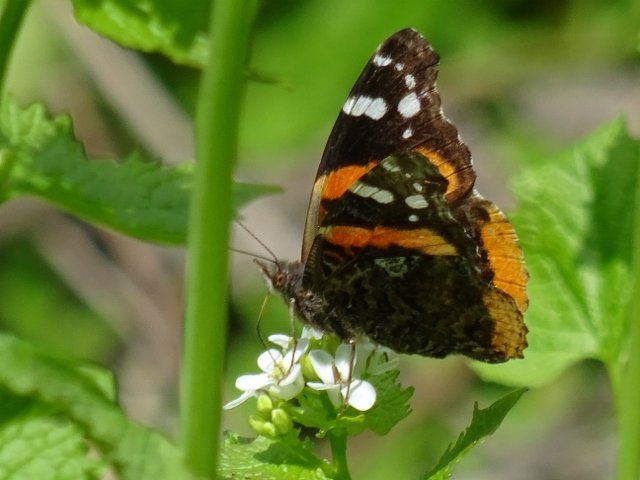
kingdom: Animalia
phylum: Arthropoda
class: Insecta
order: Lepidoptera
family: Nymphalidae
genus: Vanessa
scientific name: Vanessa atalanta
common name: Red Admiral
